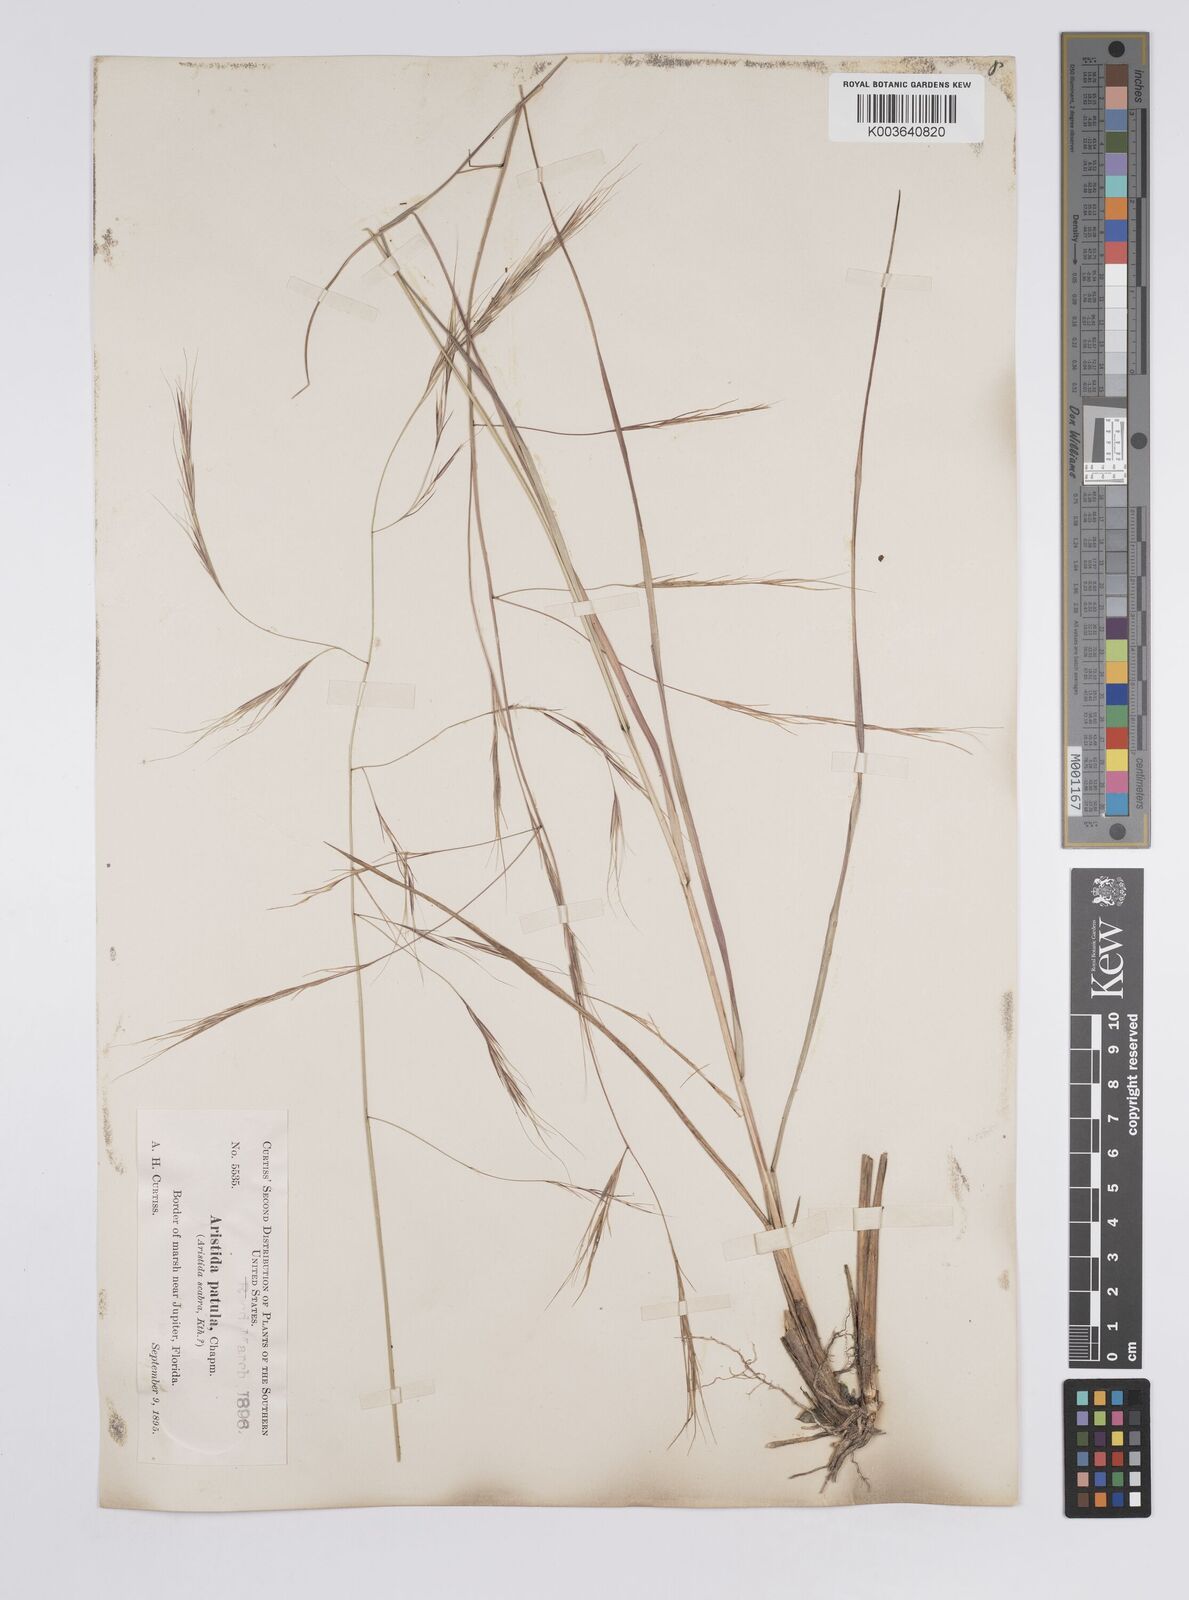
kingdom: Plantae
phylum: Tracheophyta
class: Liliopsida
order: Poales
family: Poaceae
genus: Aristida
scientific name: Aristida patula
